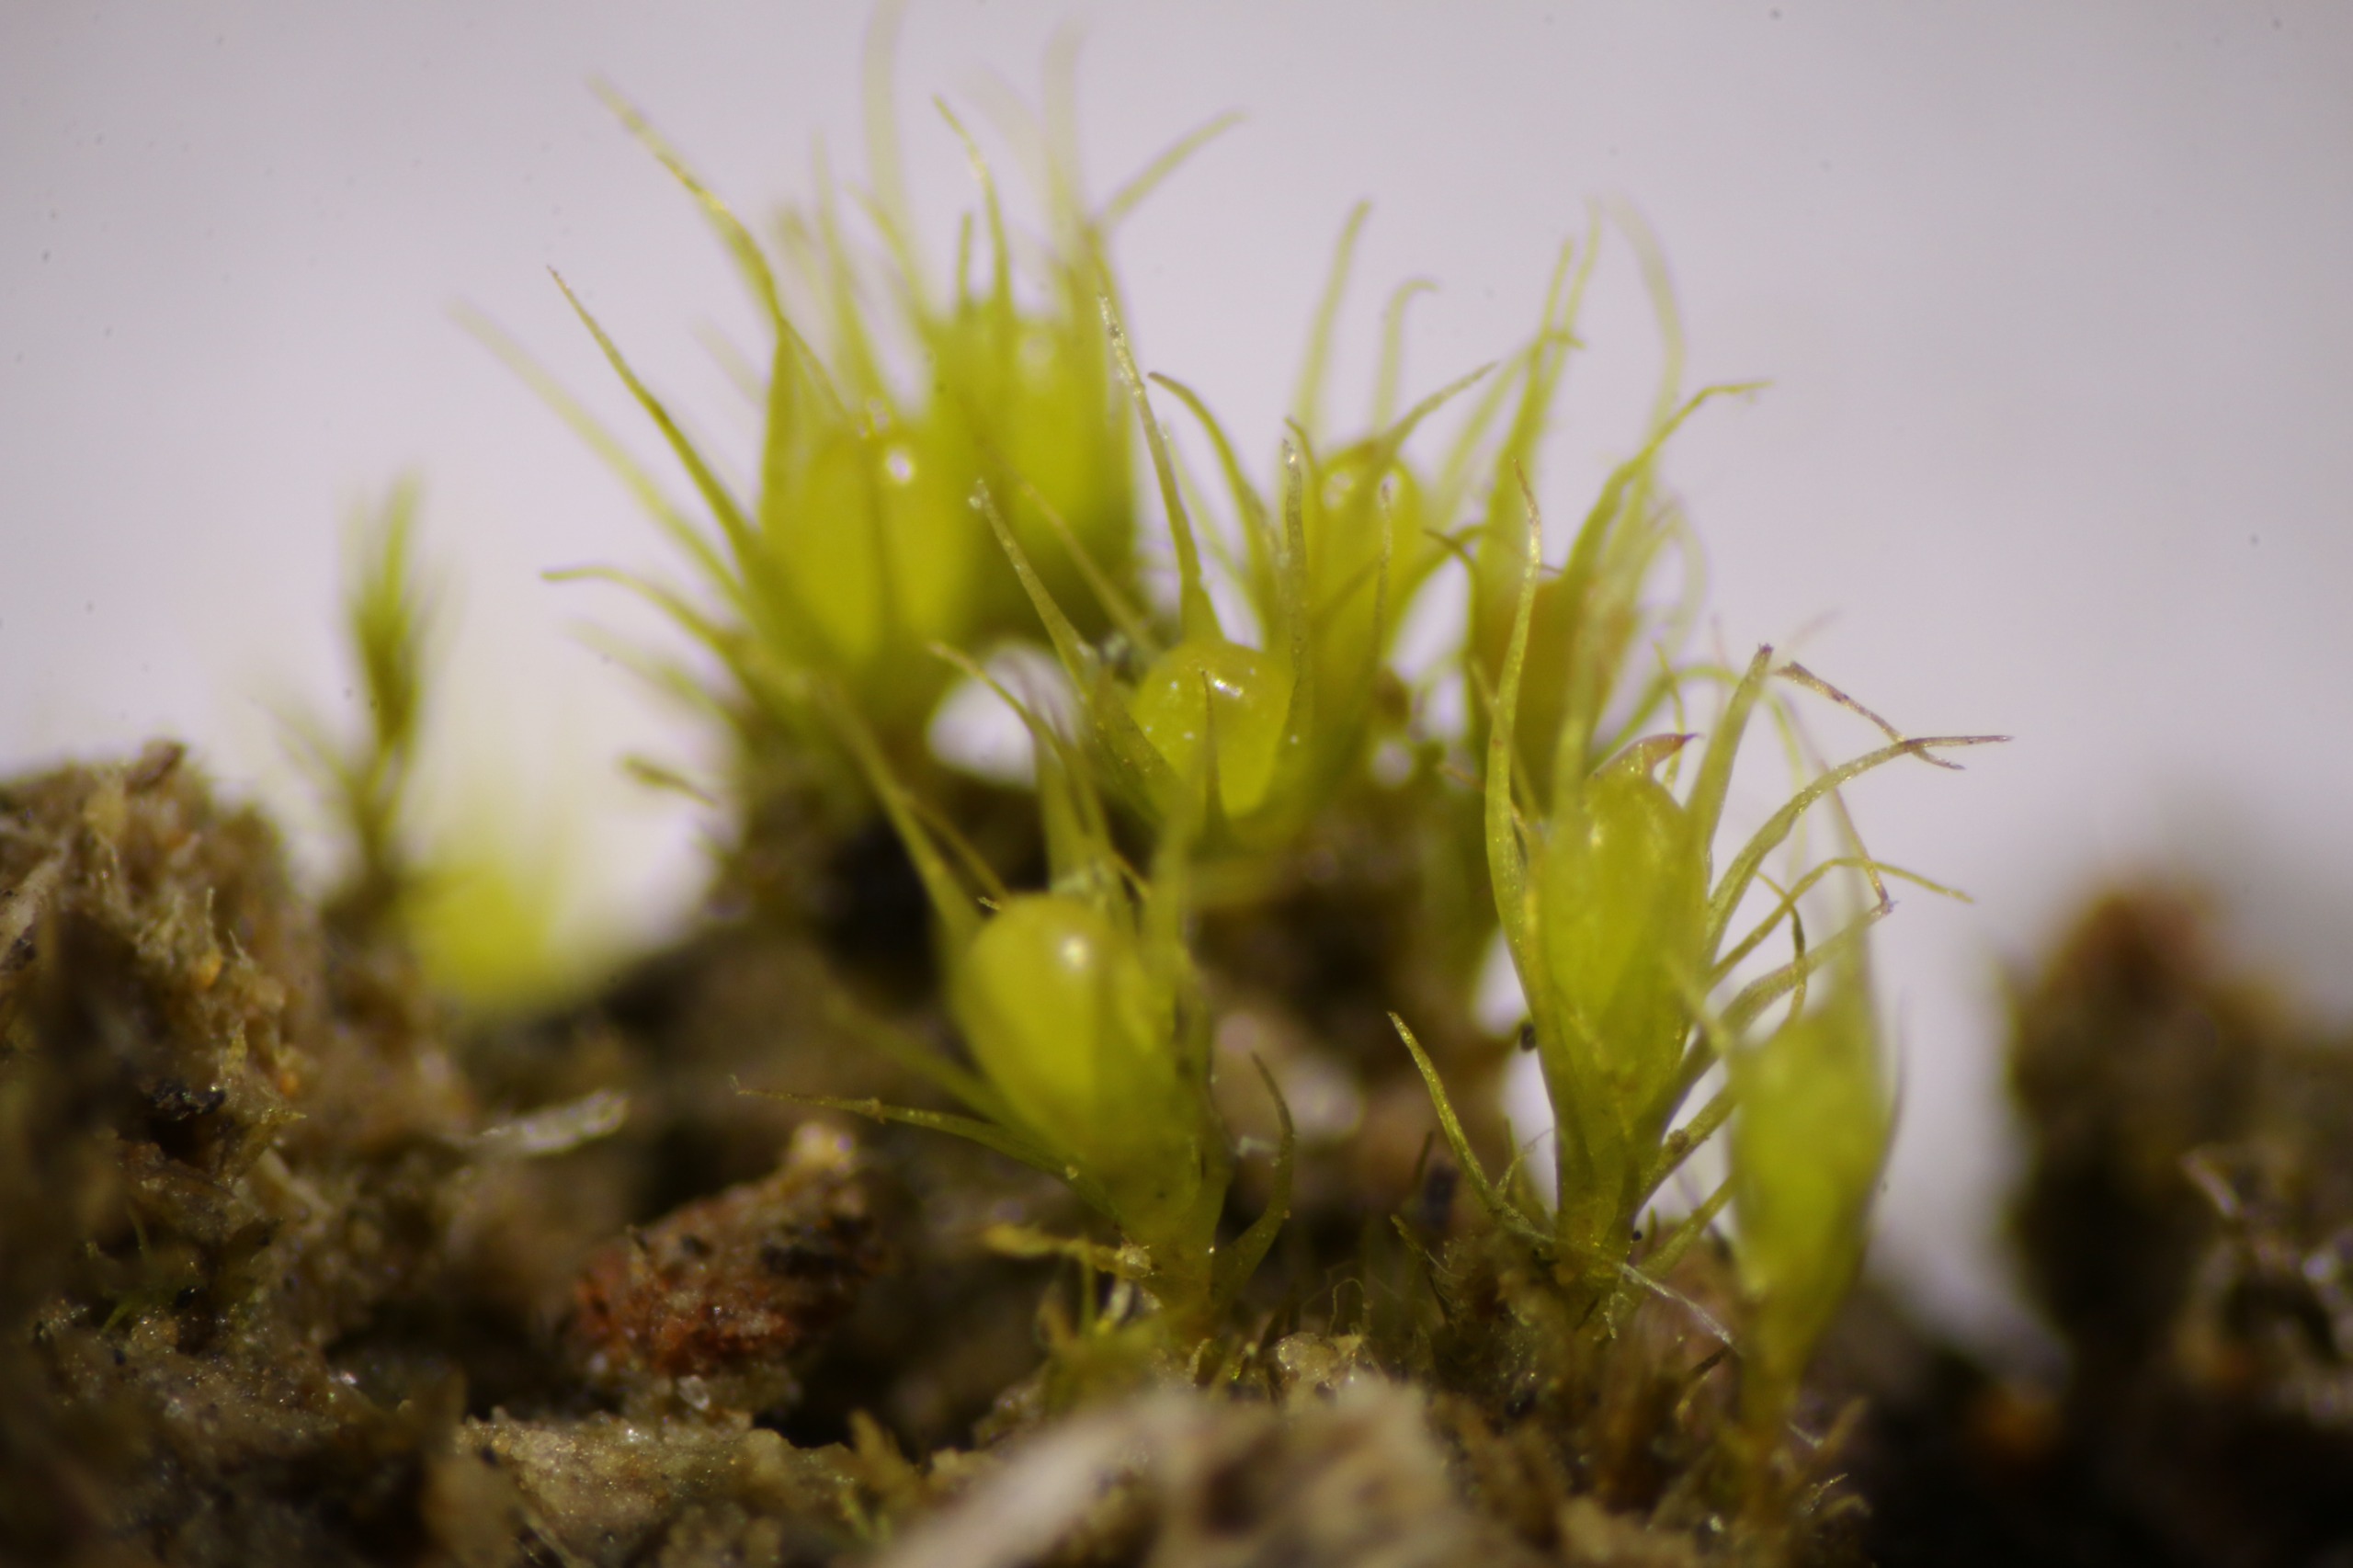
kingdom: Plantae
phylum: Bryophyta
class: Bryopsida
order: Dicranales
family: Ditrichaceae
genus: Pleuridium
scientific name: Pleuridium acuminatum
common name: Siddende sylbladsmos
